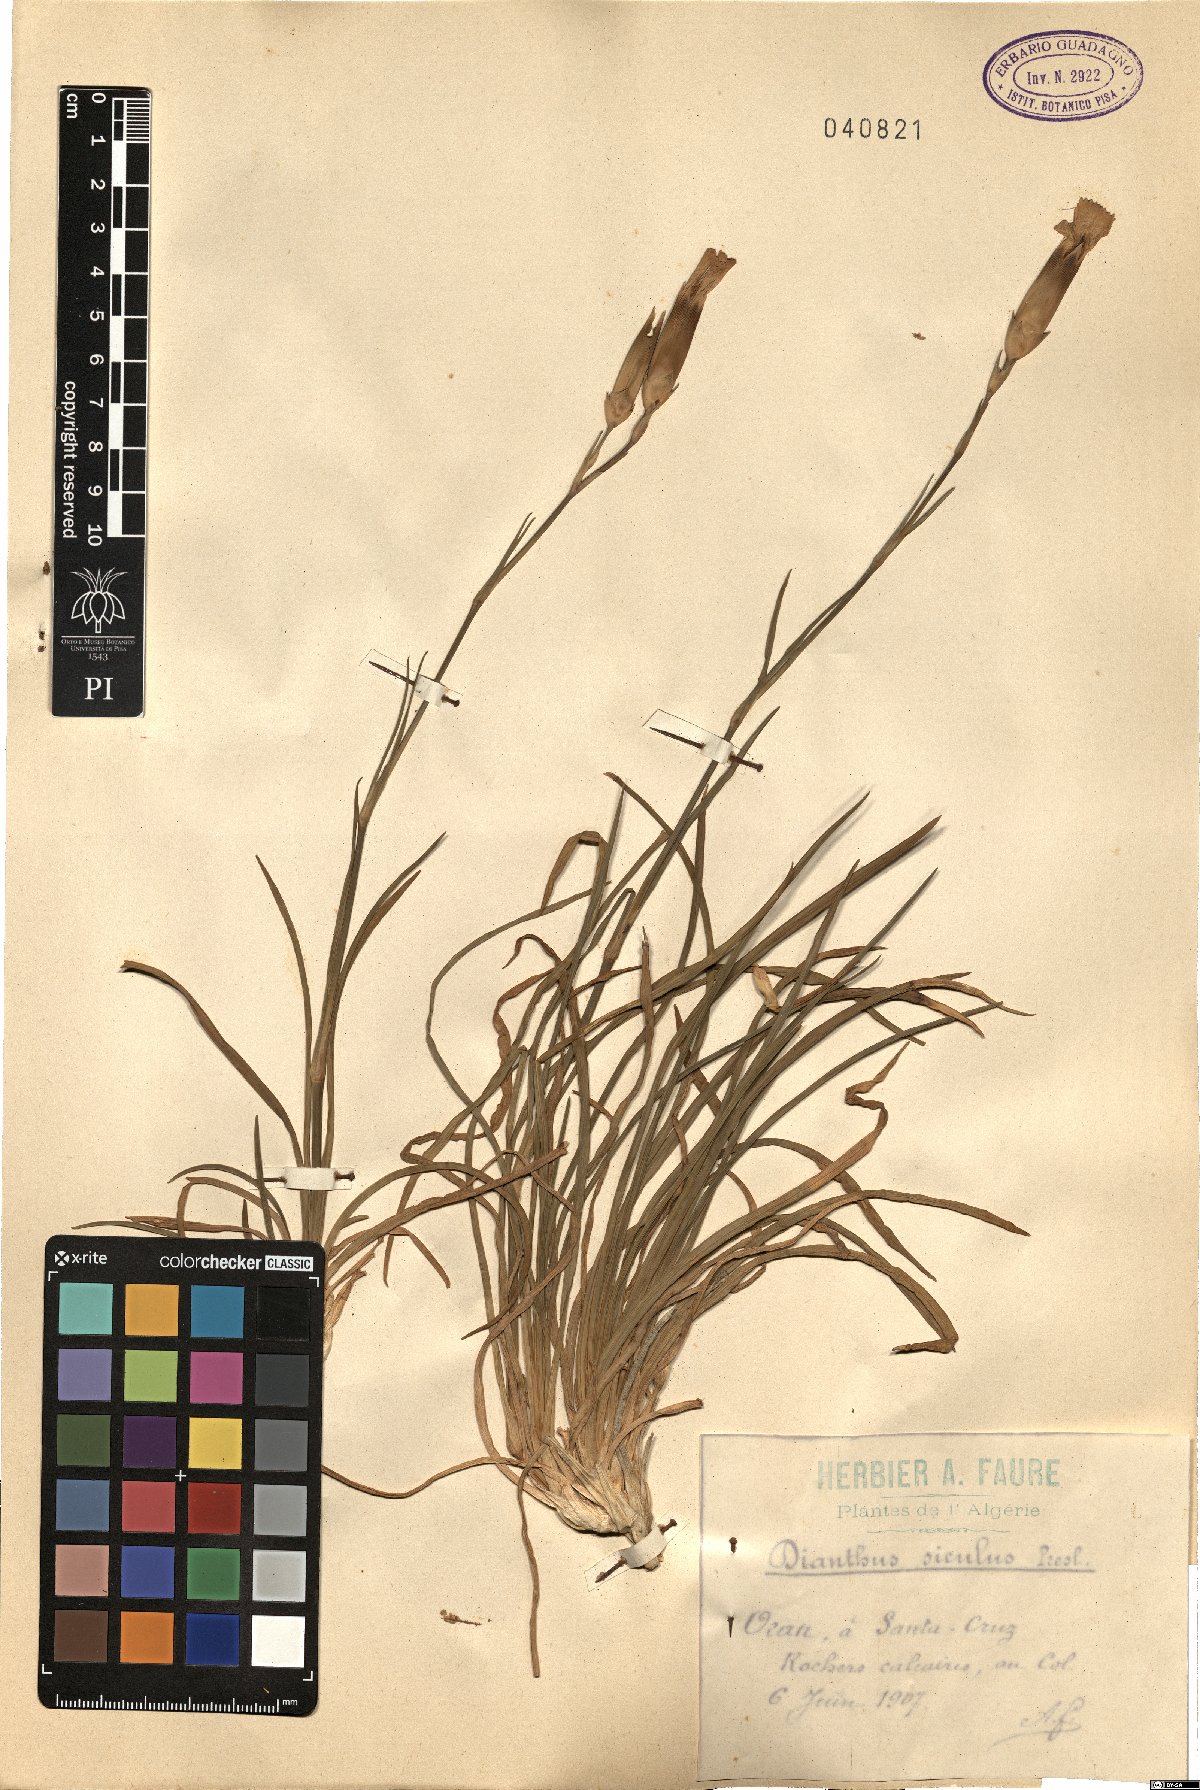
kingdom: Plantae
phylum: Tracheophyta
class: Magnoliopsida
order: Caryophyllales
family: Caryophyllaceae
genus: Dianthus
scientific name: Dianthus siculus
